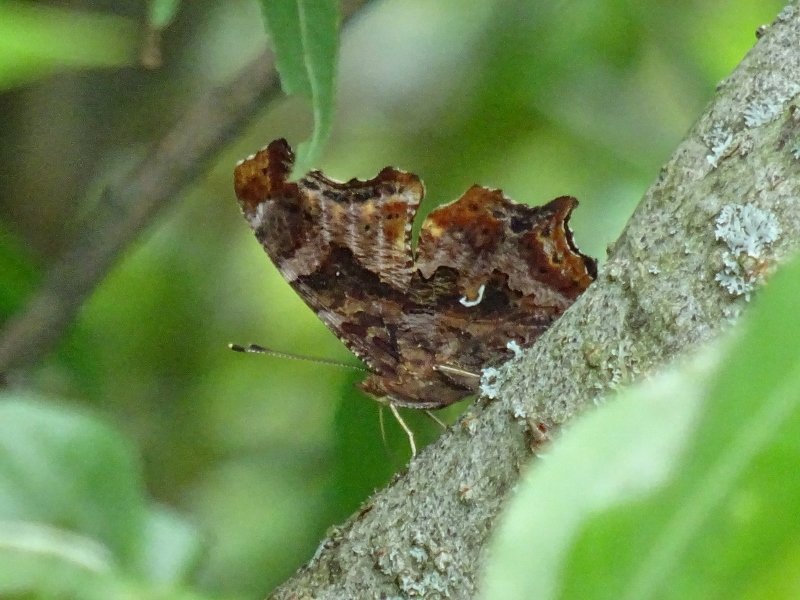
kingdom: Animalia
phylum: Arthropoda
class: Insecta
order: Lepidoptera
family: Nymphalidae
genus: Polygonia
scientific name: Polygonia comma
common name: Eastern Comma
